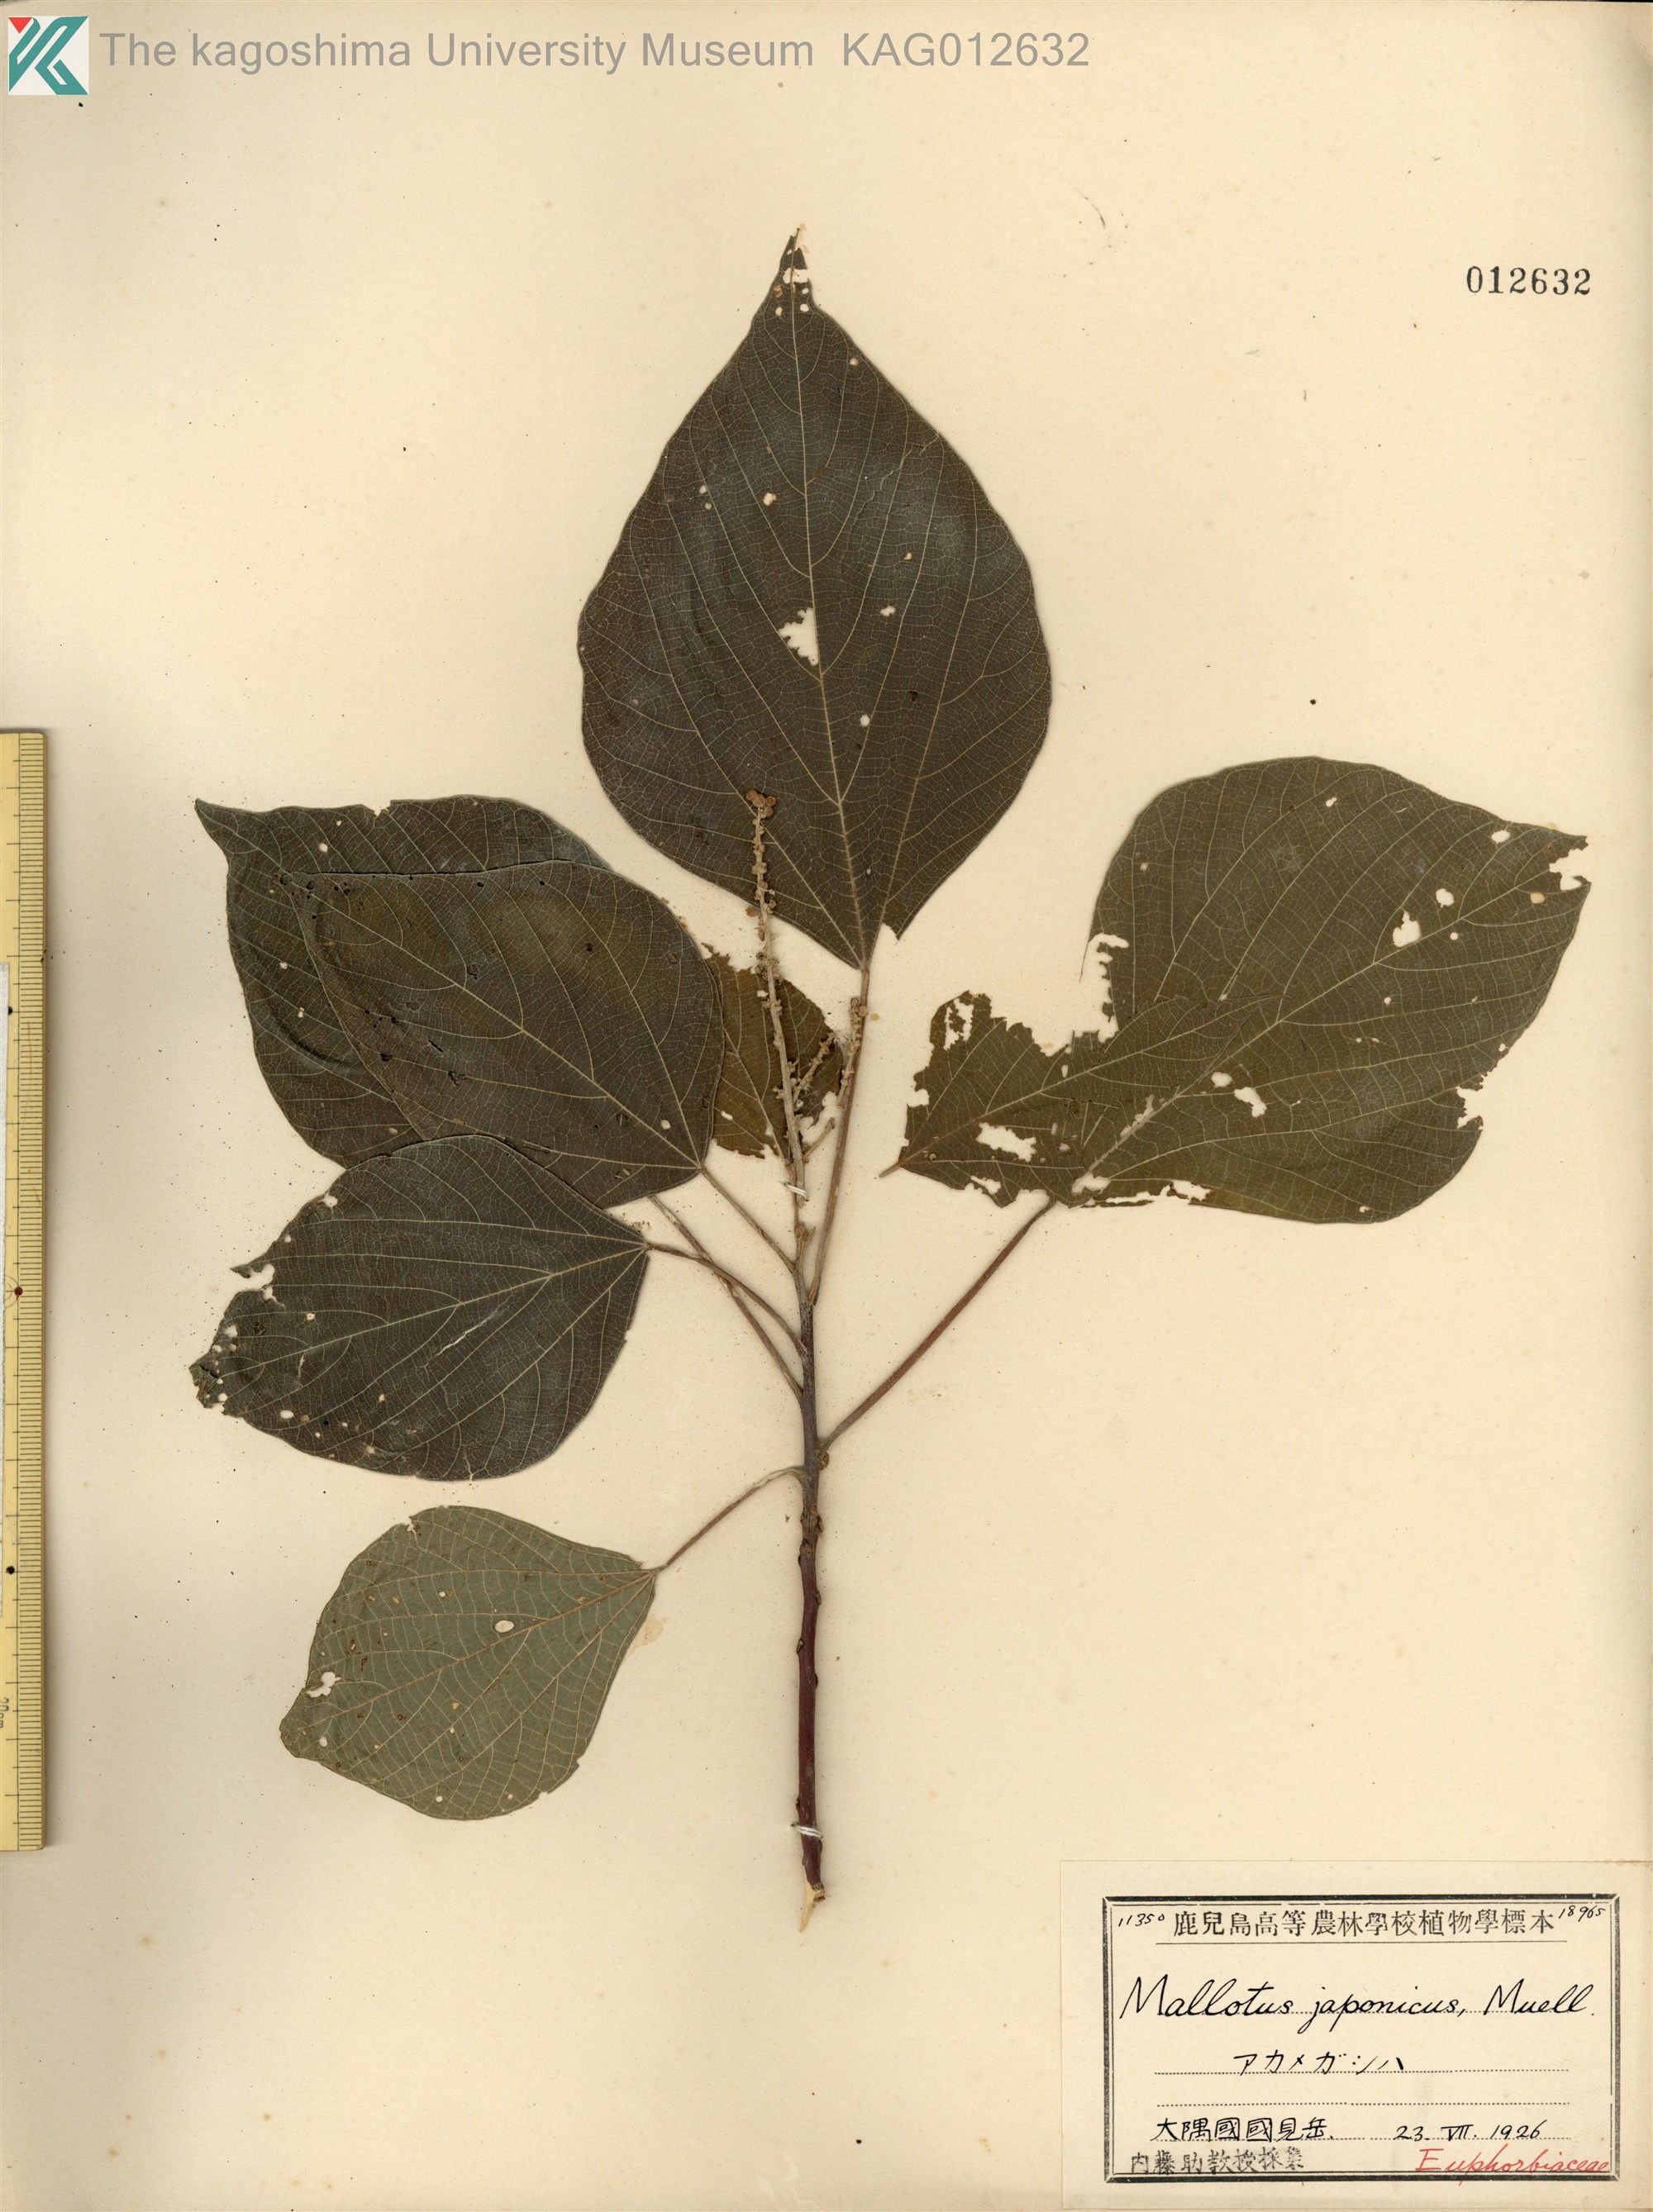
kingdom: Plantae
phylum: Tracheophyta
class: Magnoliopsida
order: Malpighiales
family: Euphorbiaceae
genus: Mallotus
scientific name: Mallotus japonicus
